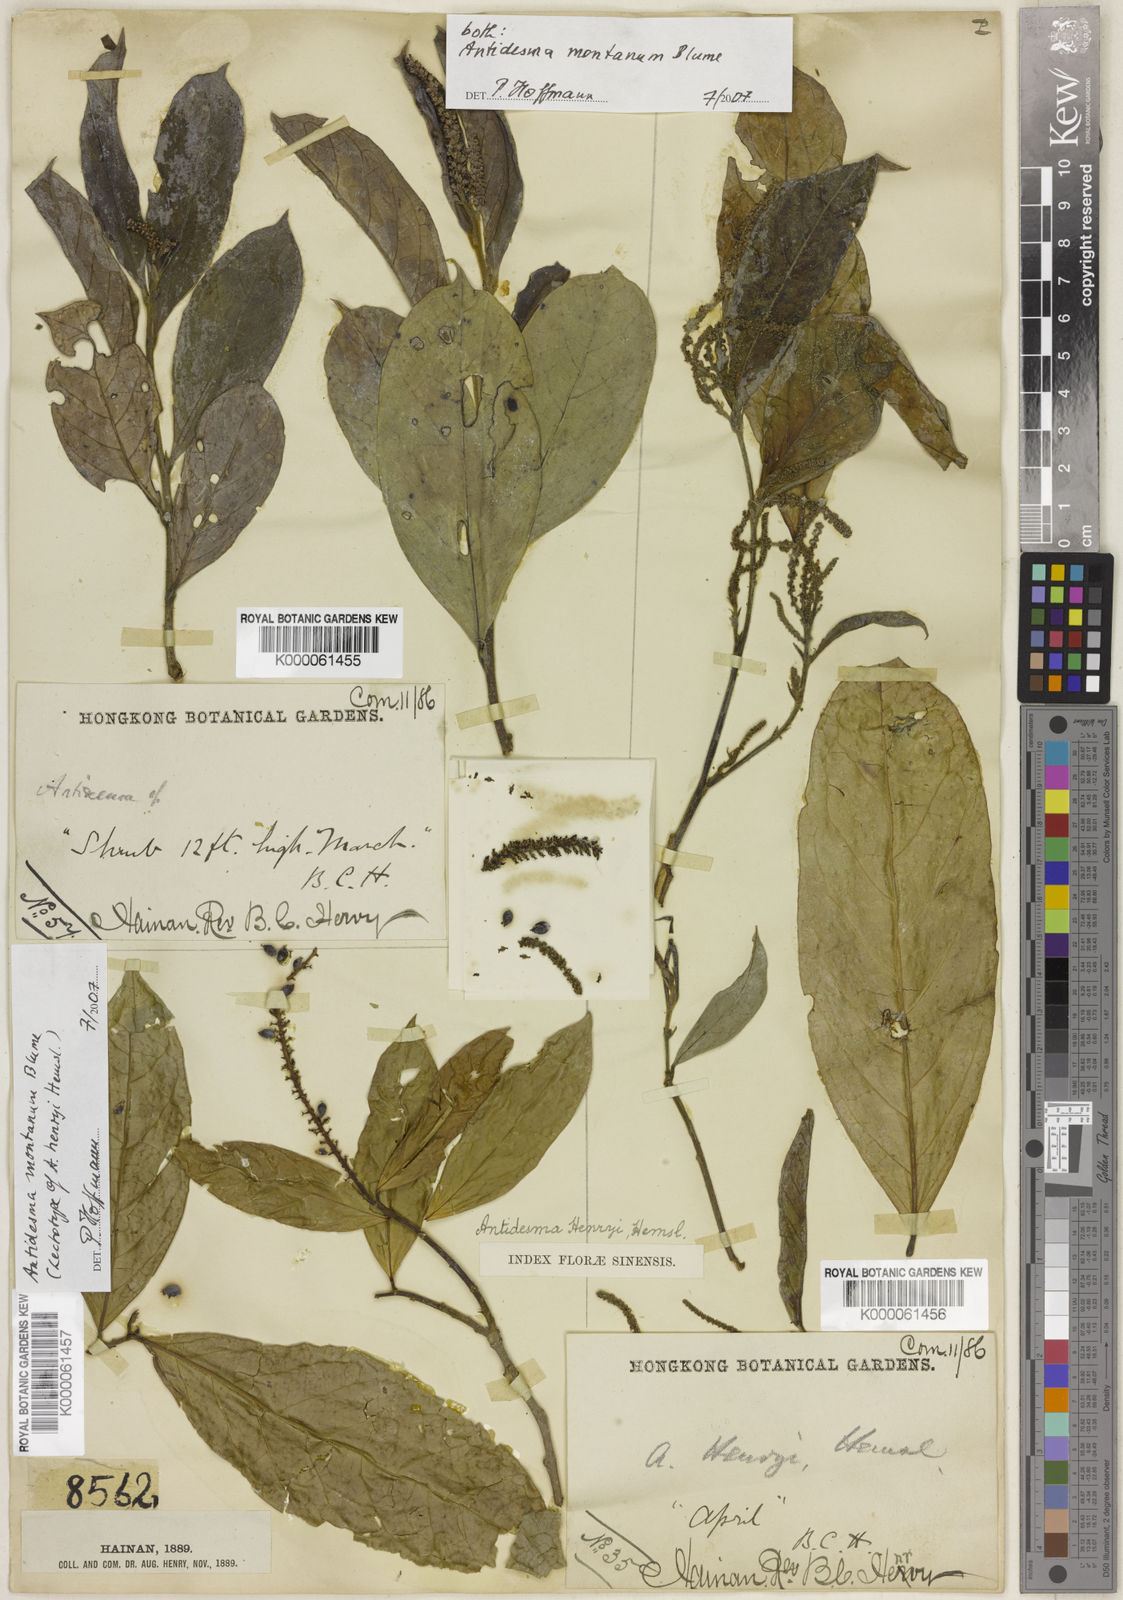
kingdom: Plantae
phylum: Tracheophyta
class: Magnoliopsida
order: Malpighiales
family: Phyllanthaceae
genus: Antidesma
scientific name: Antidesma montanum
